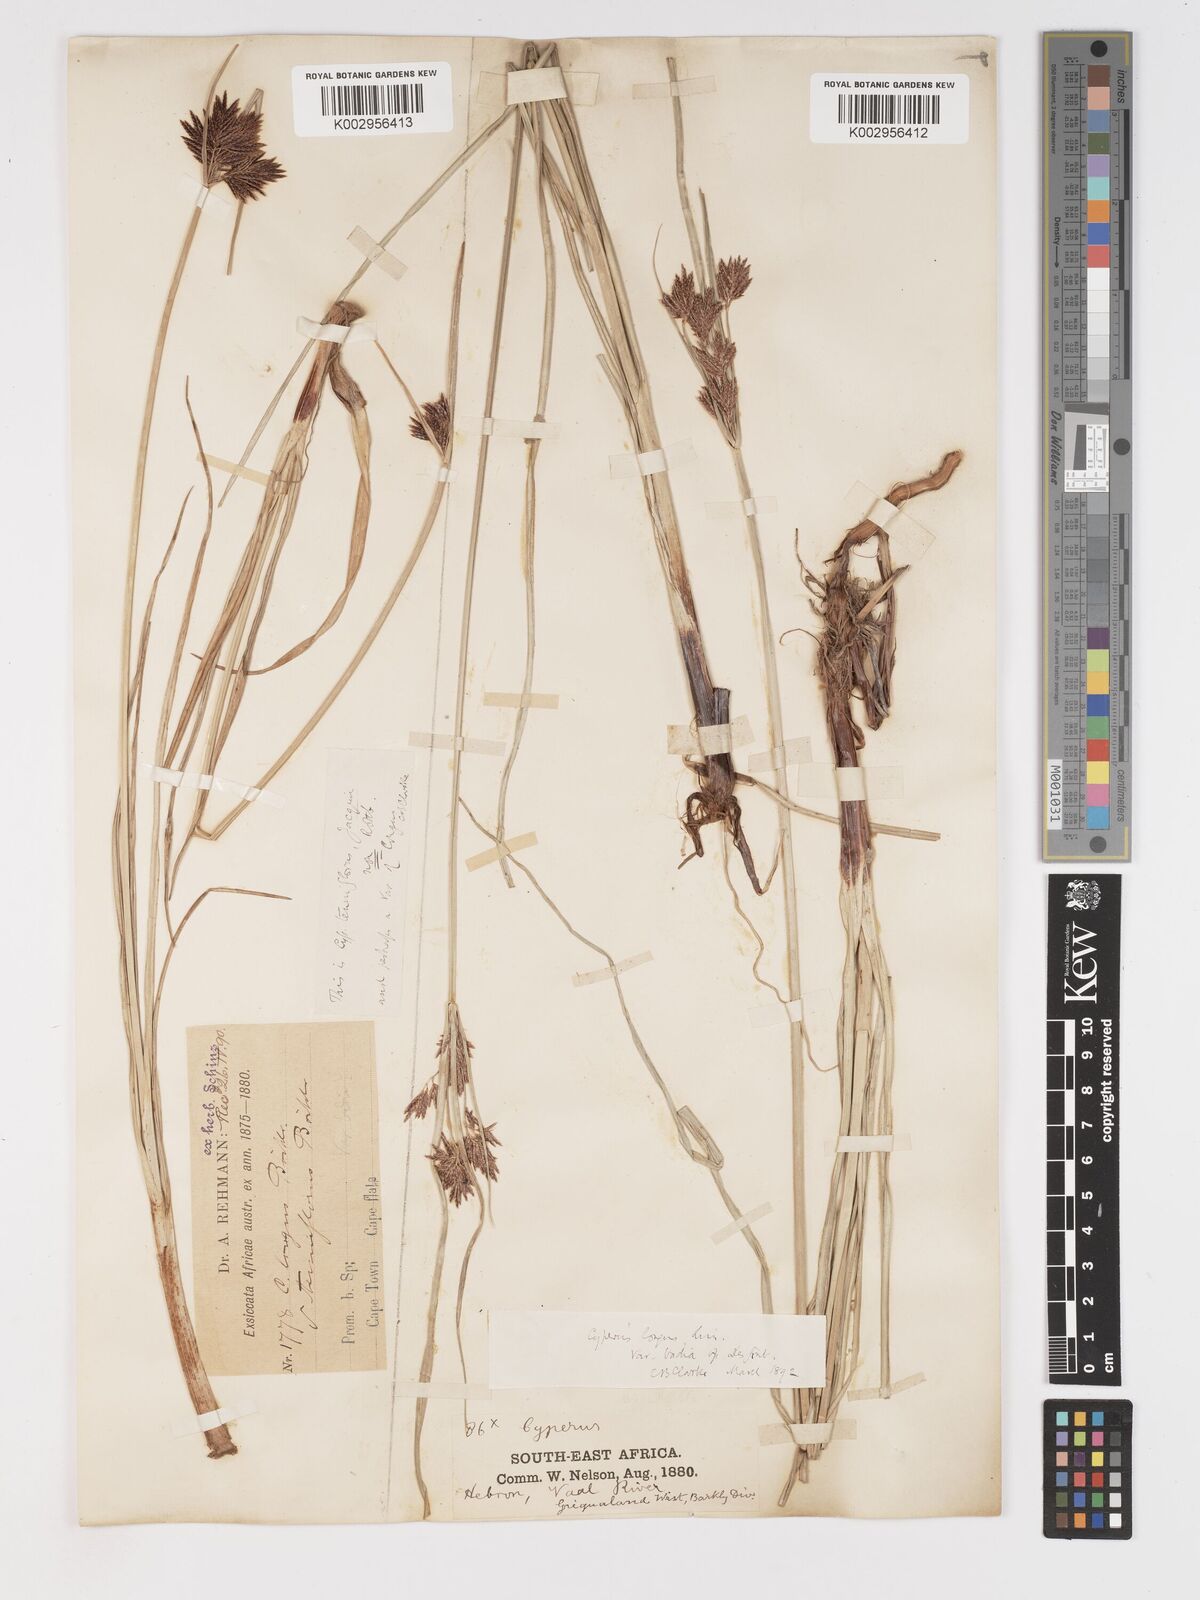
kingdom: Plantae
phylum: Tracheophyta
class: Liliopsida
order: Poales
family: Cyperaceae
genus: Cyperus
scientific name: Cyperus longus
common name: Galingale
